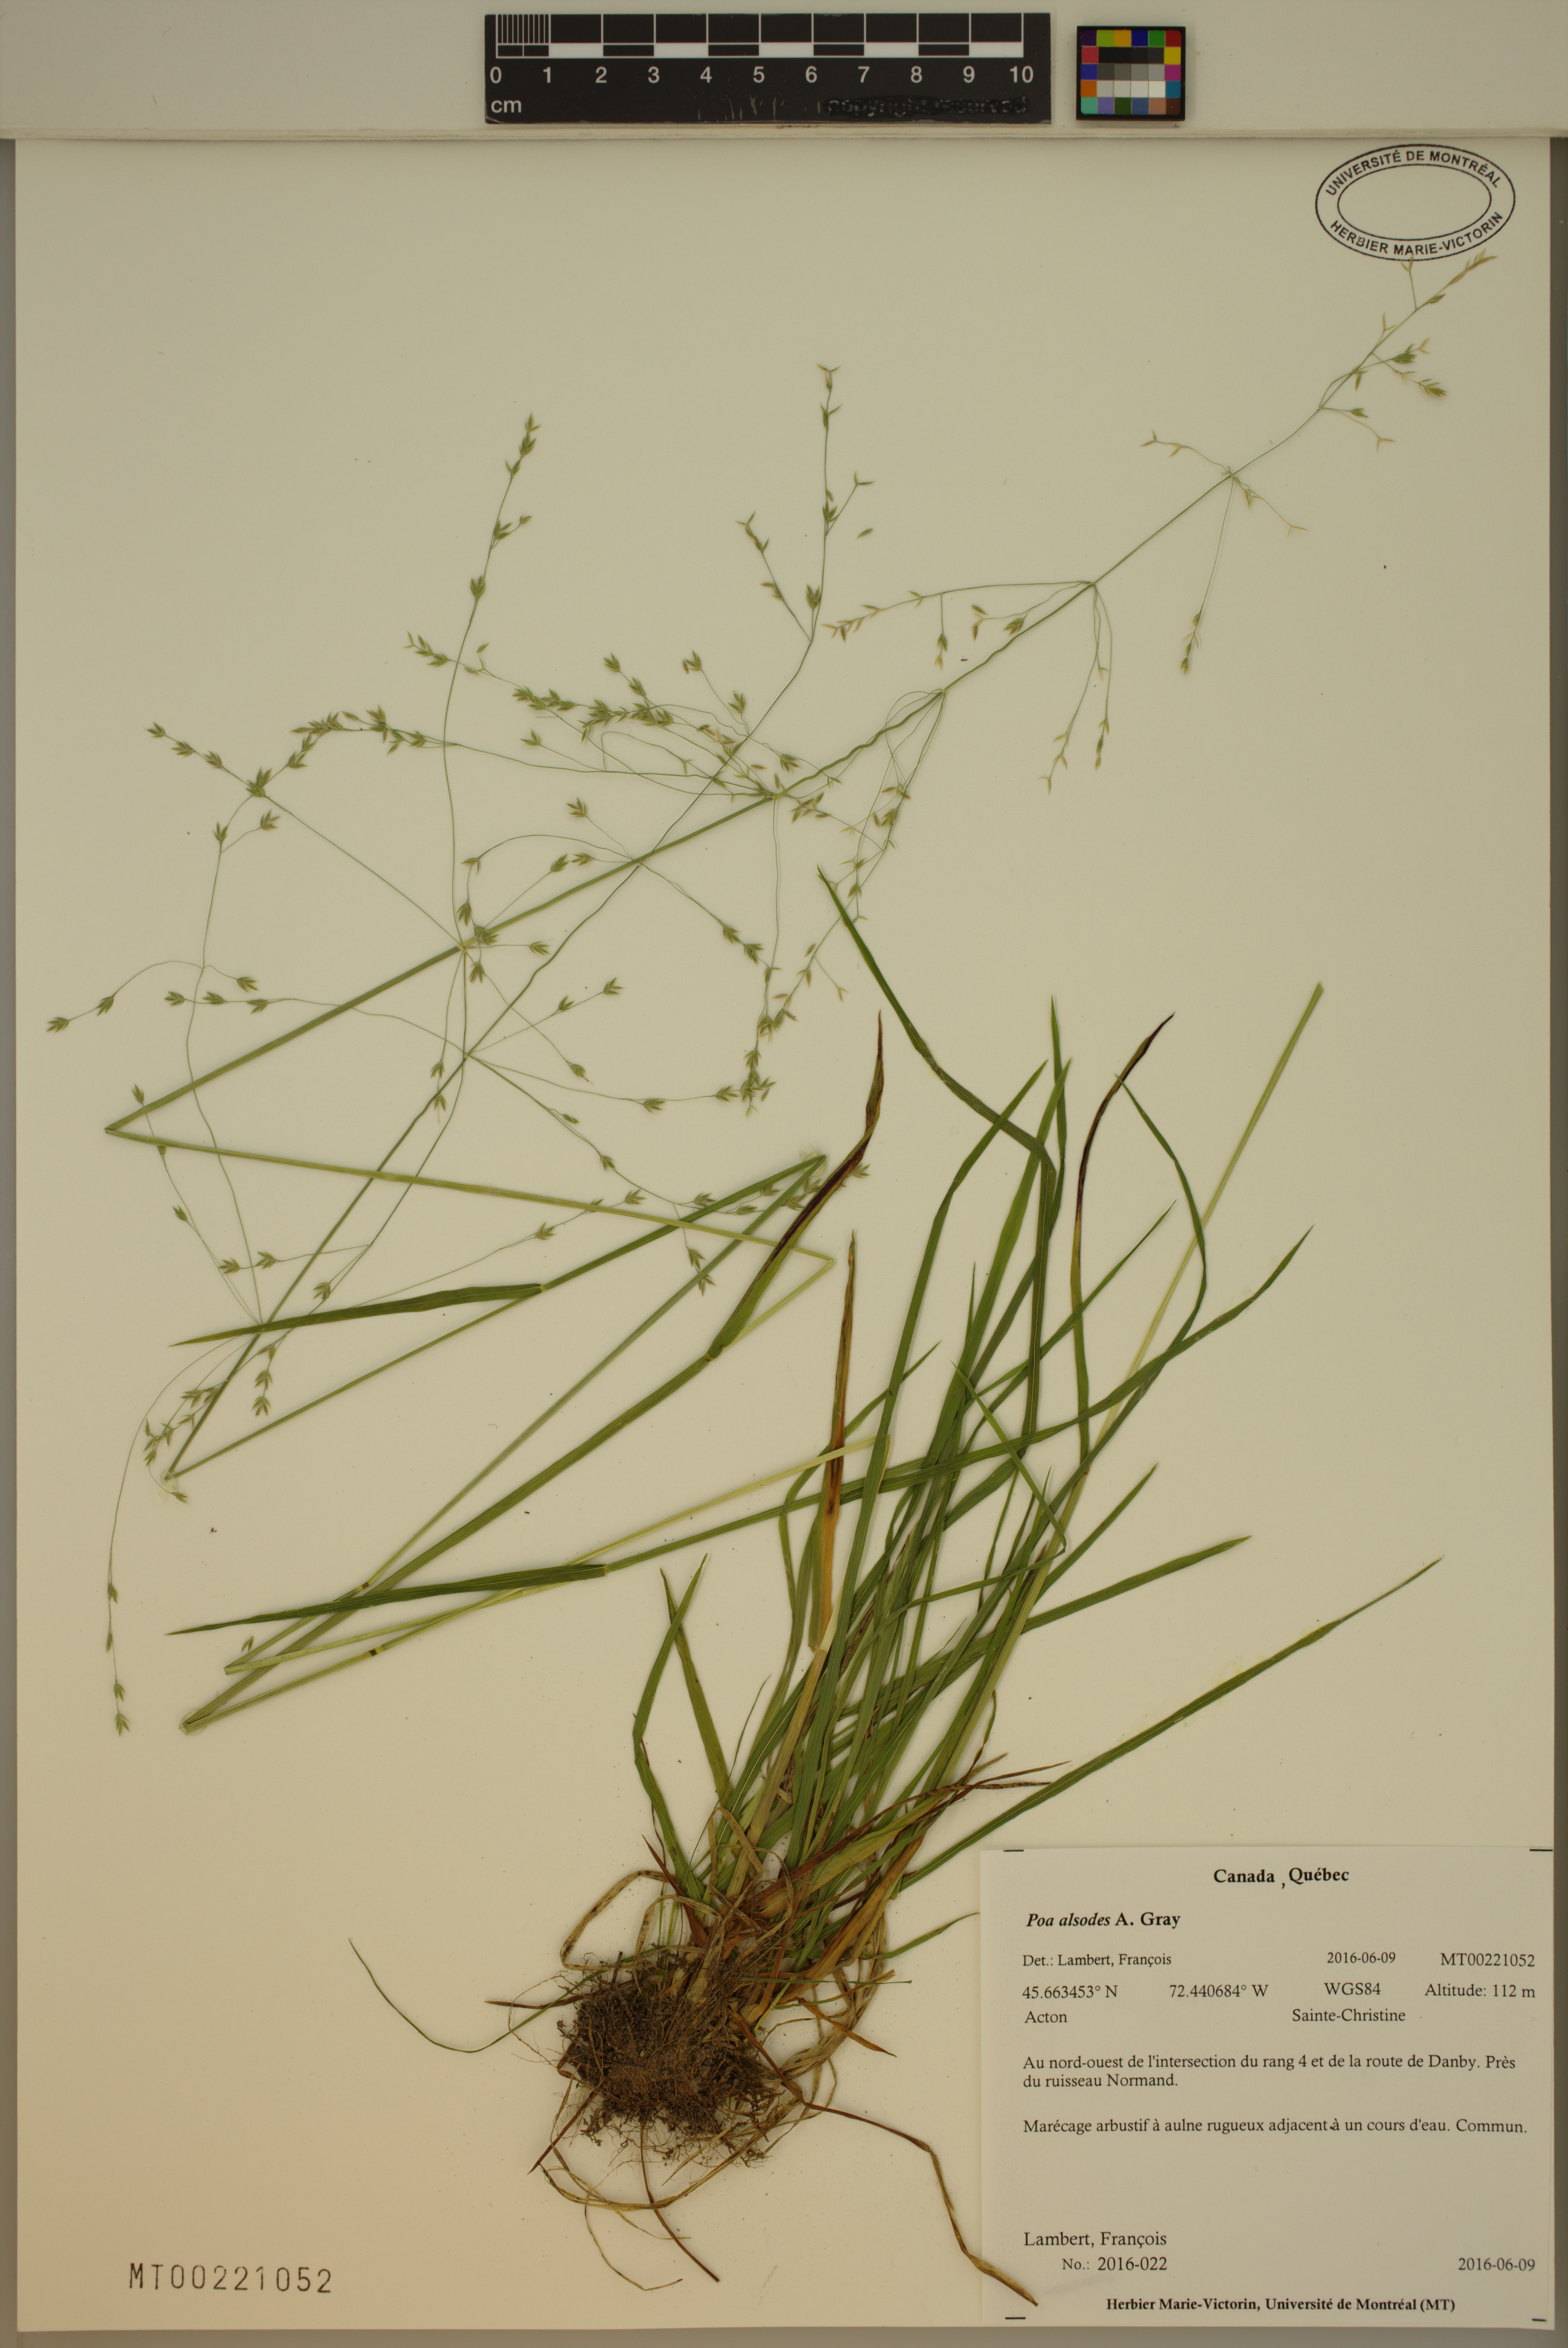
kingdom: Plantae
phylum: Tracheophyta
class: Liliopsida
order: Poales
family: Poaceae
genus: Poa
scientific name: Poa alsodes
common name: Grove bluegrass
